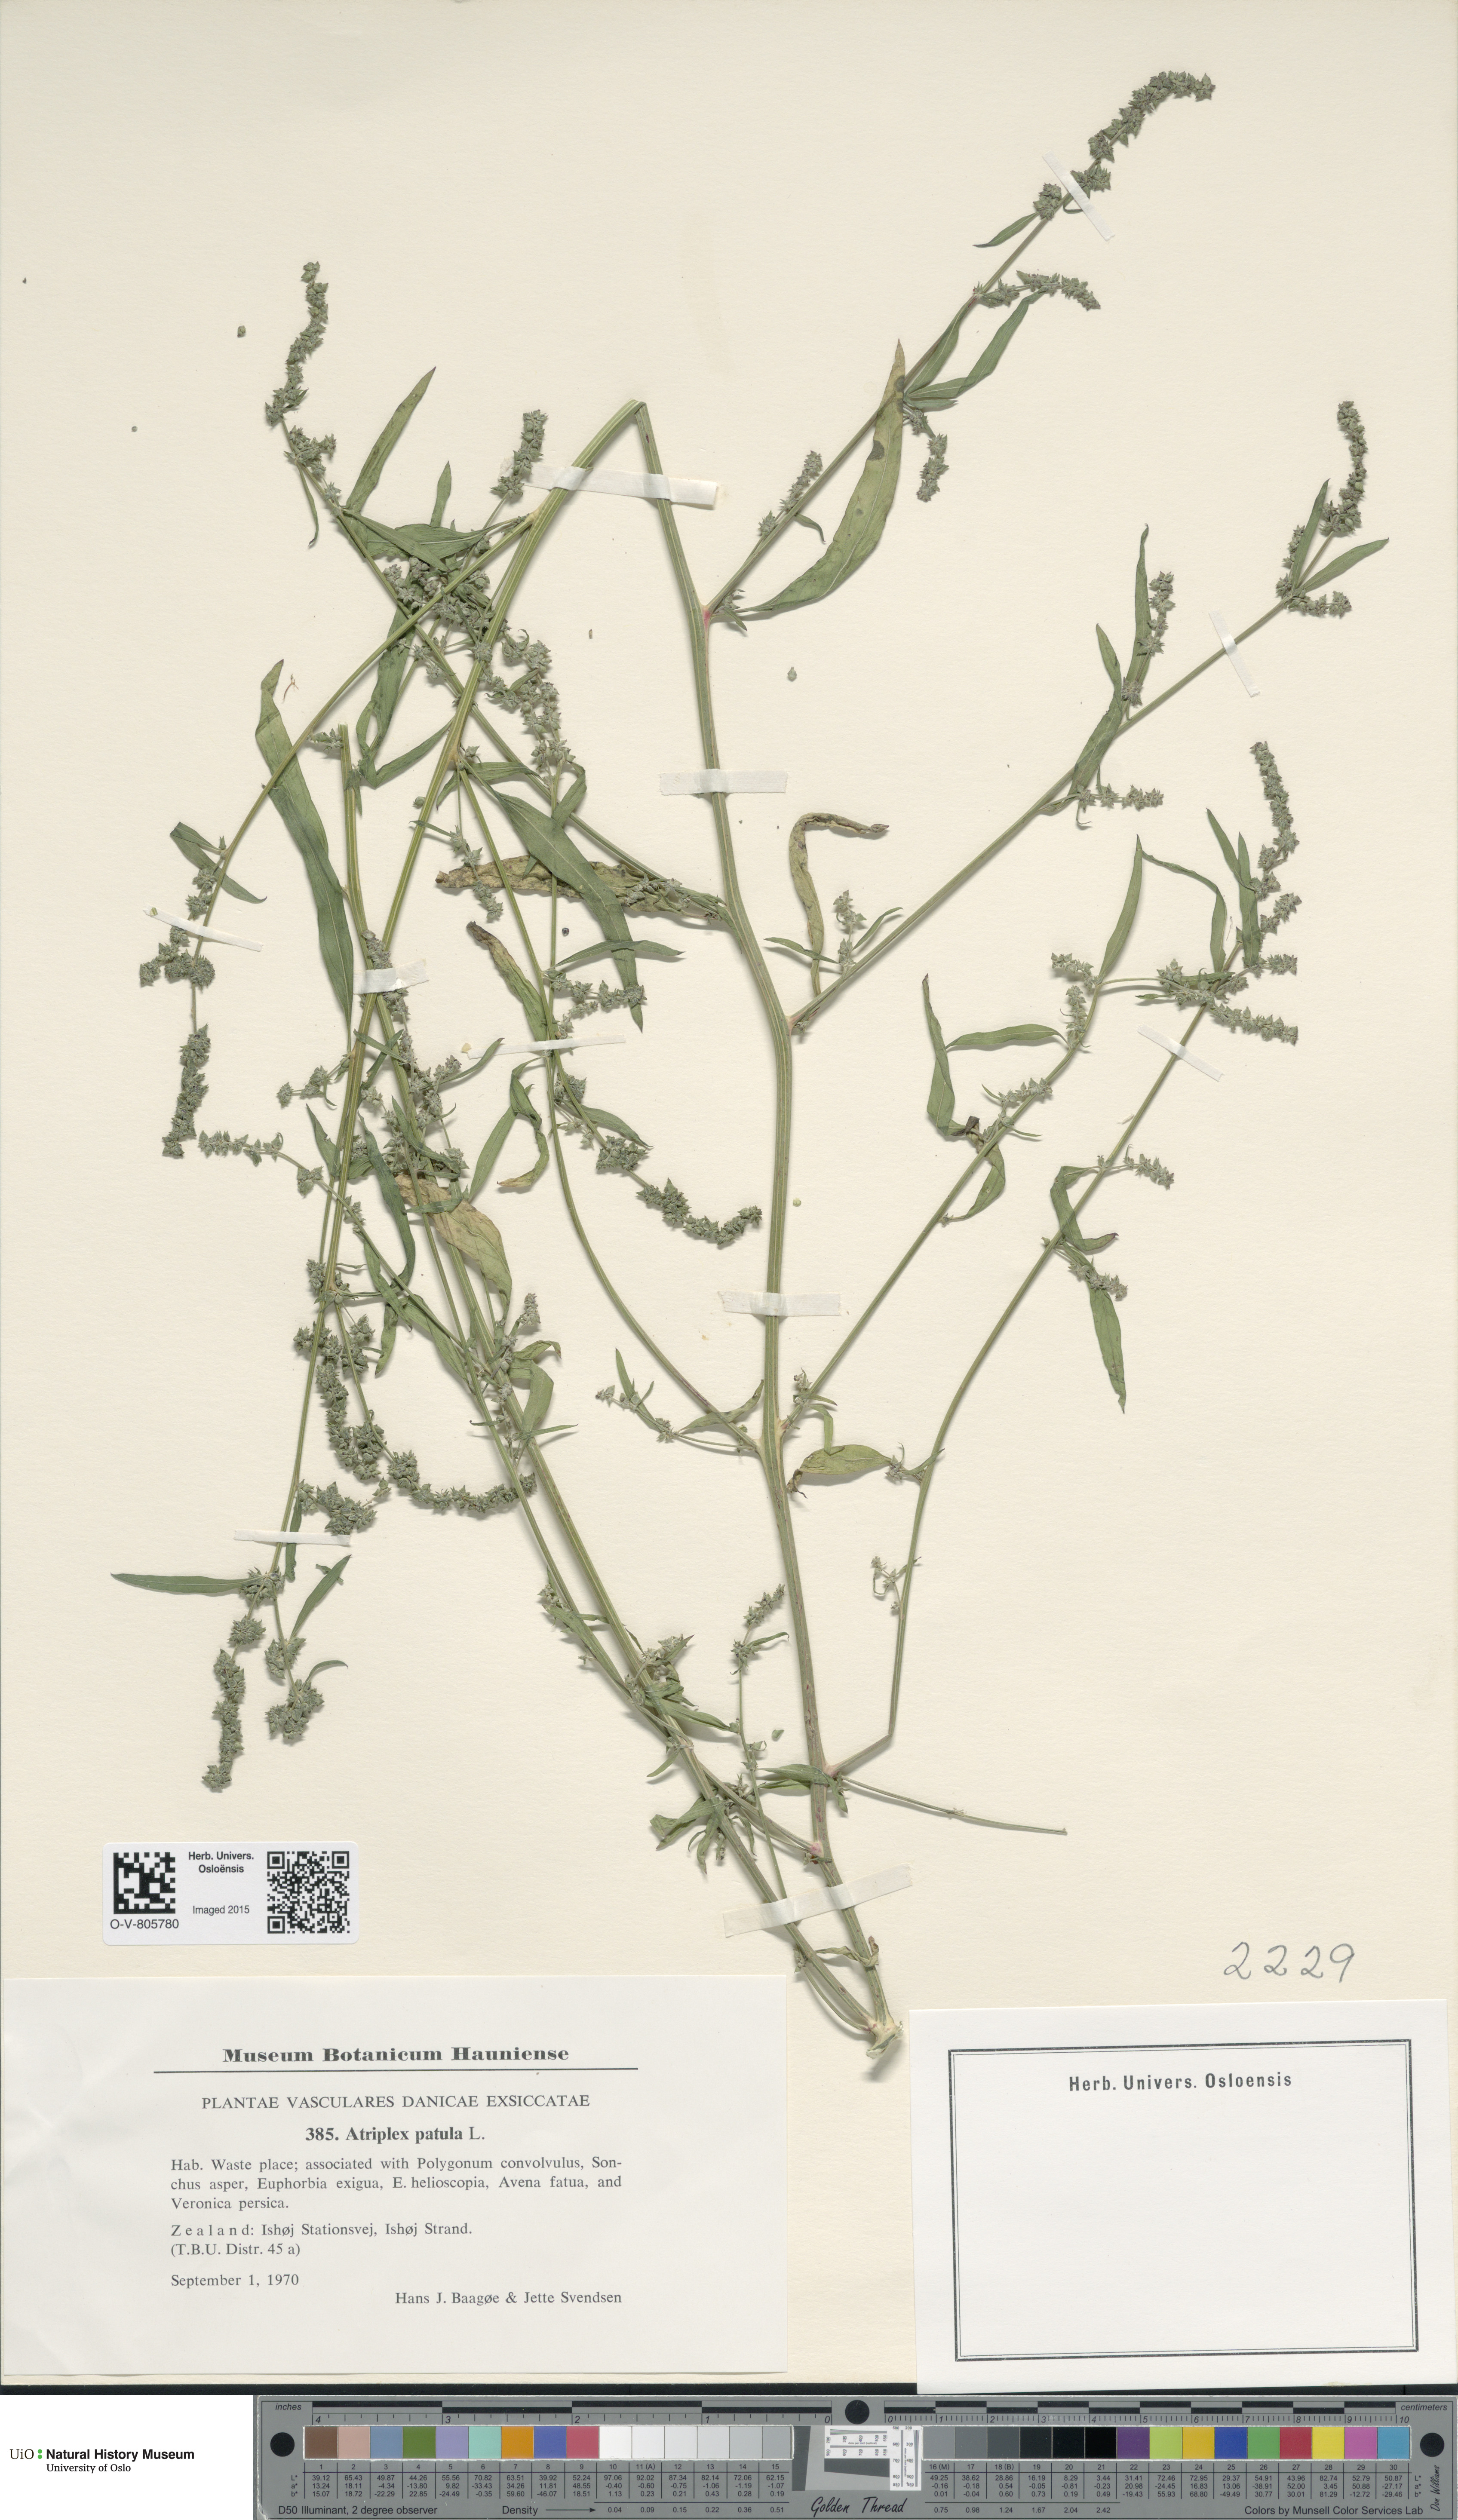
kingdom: Plantae
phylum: Tracheophyta
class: Magnoliopsida
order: Caryophyllales
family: Amaranthaceae
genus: Atriplex
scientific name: Atriplex patula
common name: Common orache
